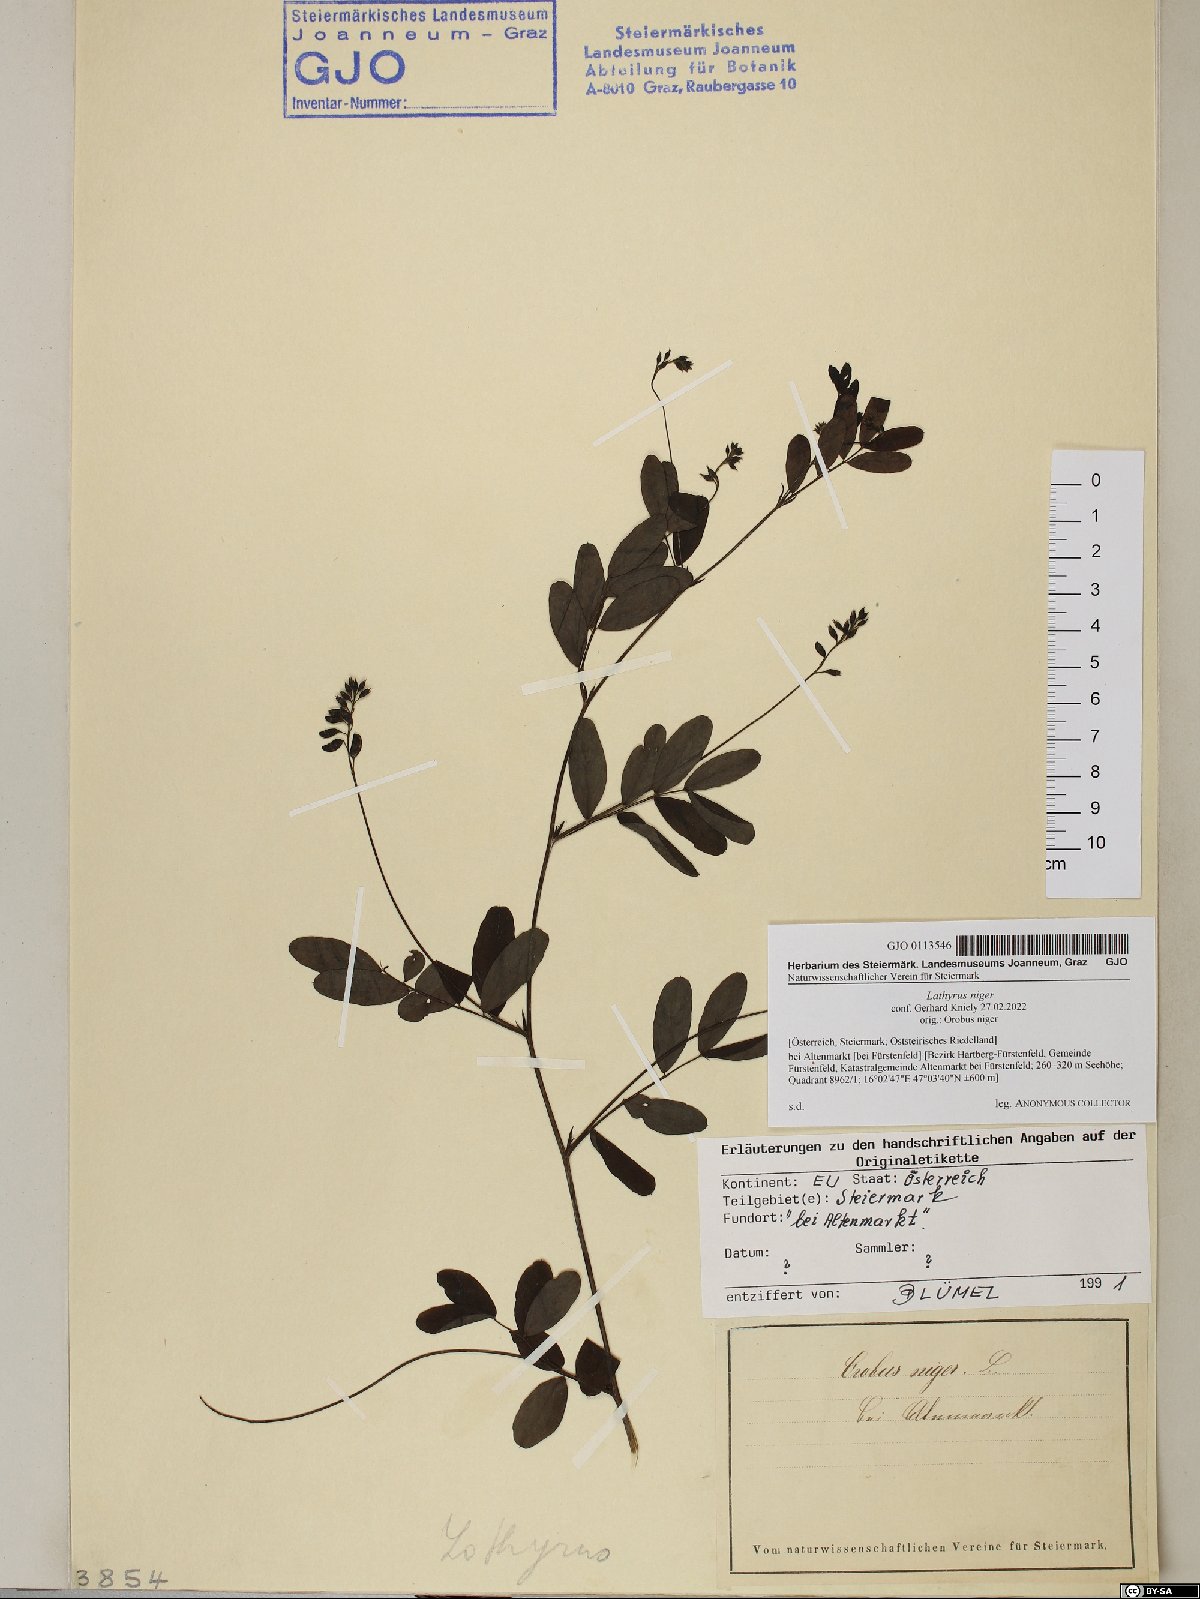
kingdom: Plantae
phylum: Tracheophyta
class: Magnoliopsida
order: Fabales
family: Fabaceae
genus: Lathyrus
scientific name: Lathyrus niger
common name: Black pea
